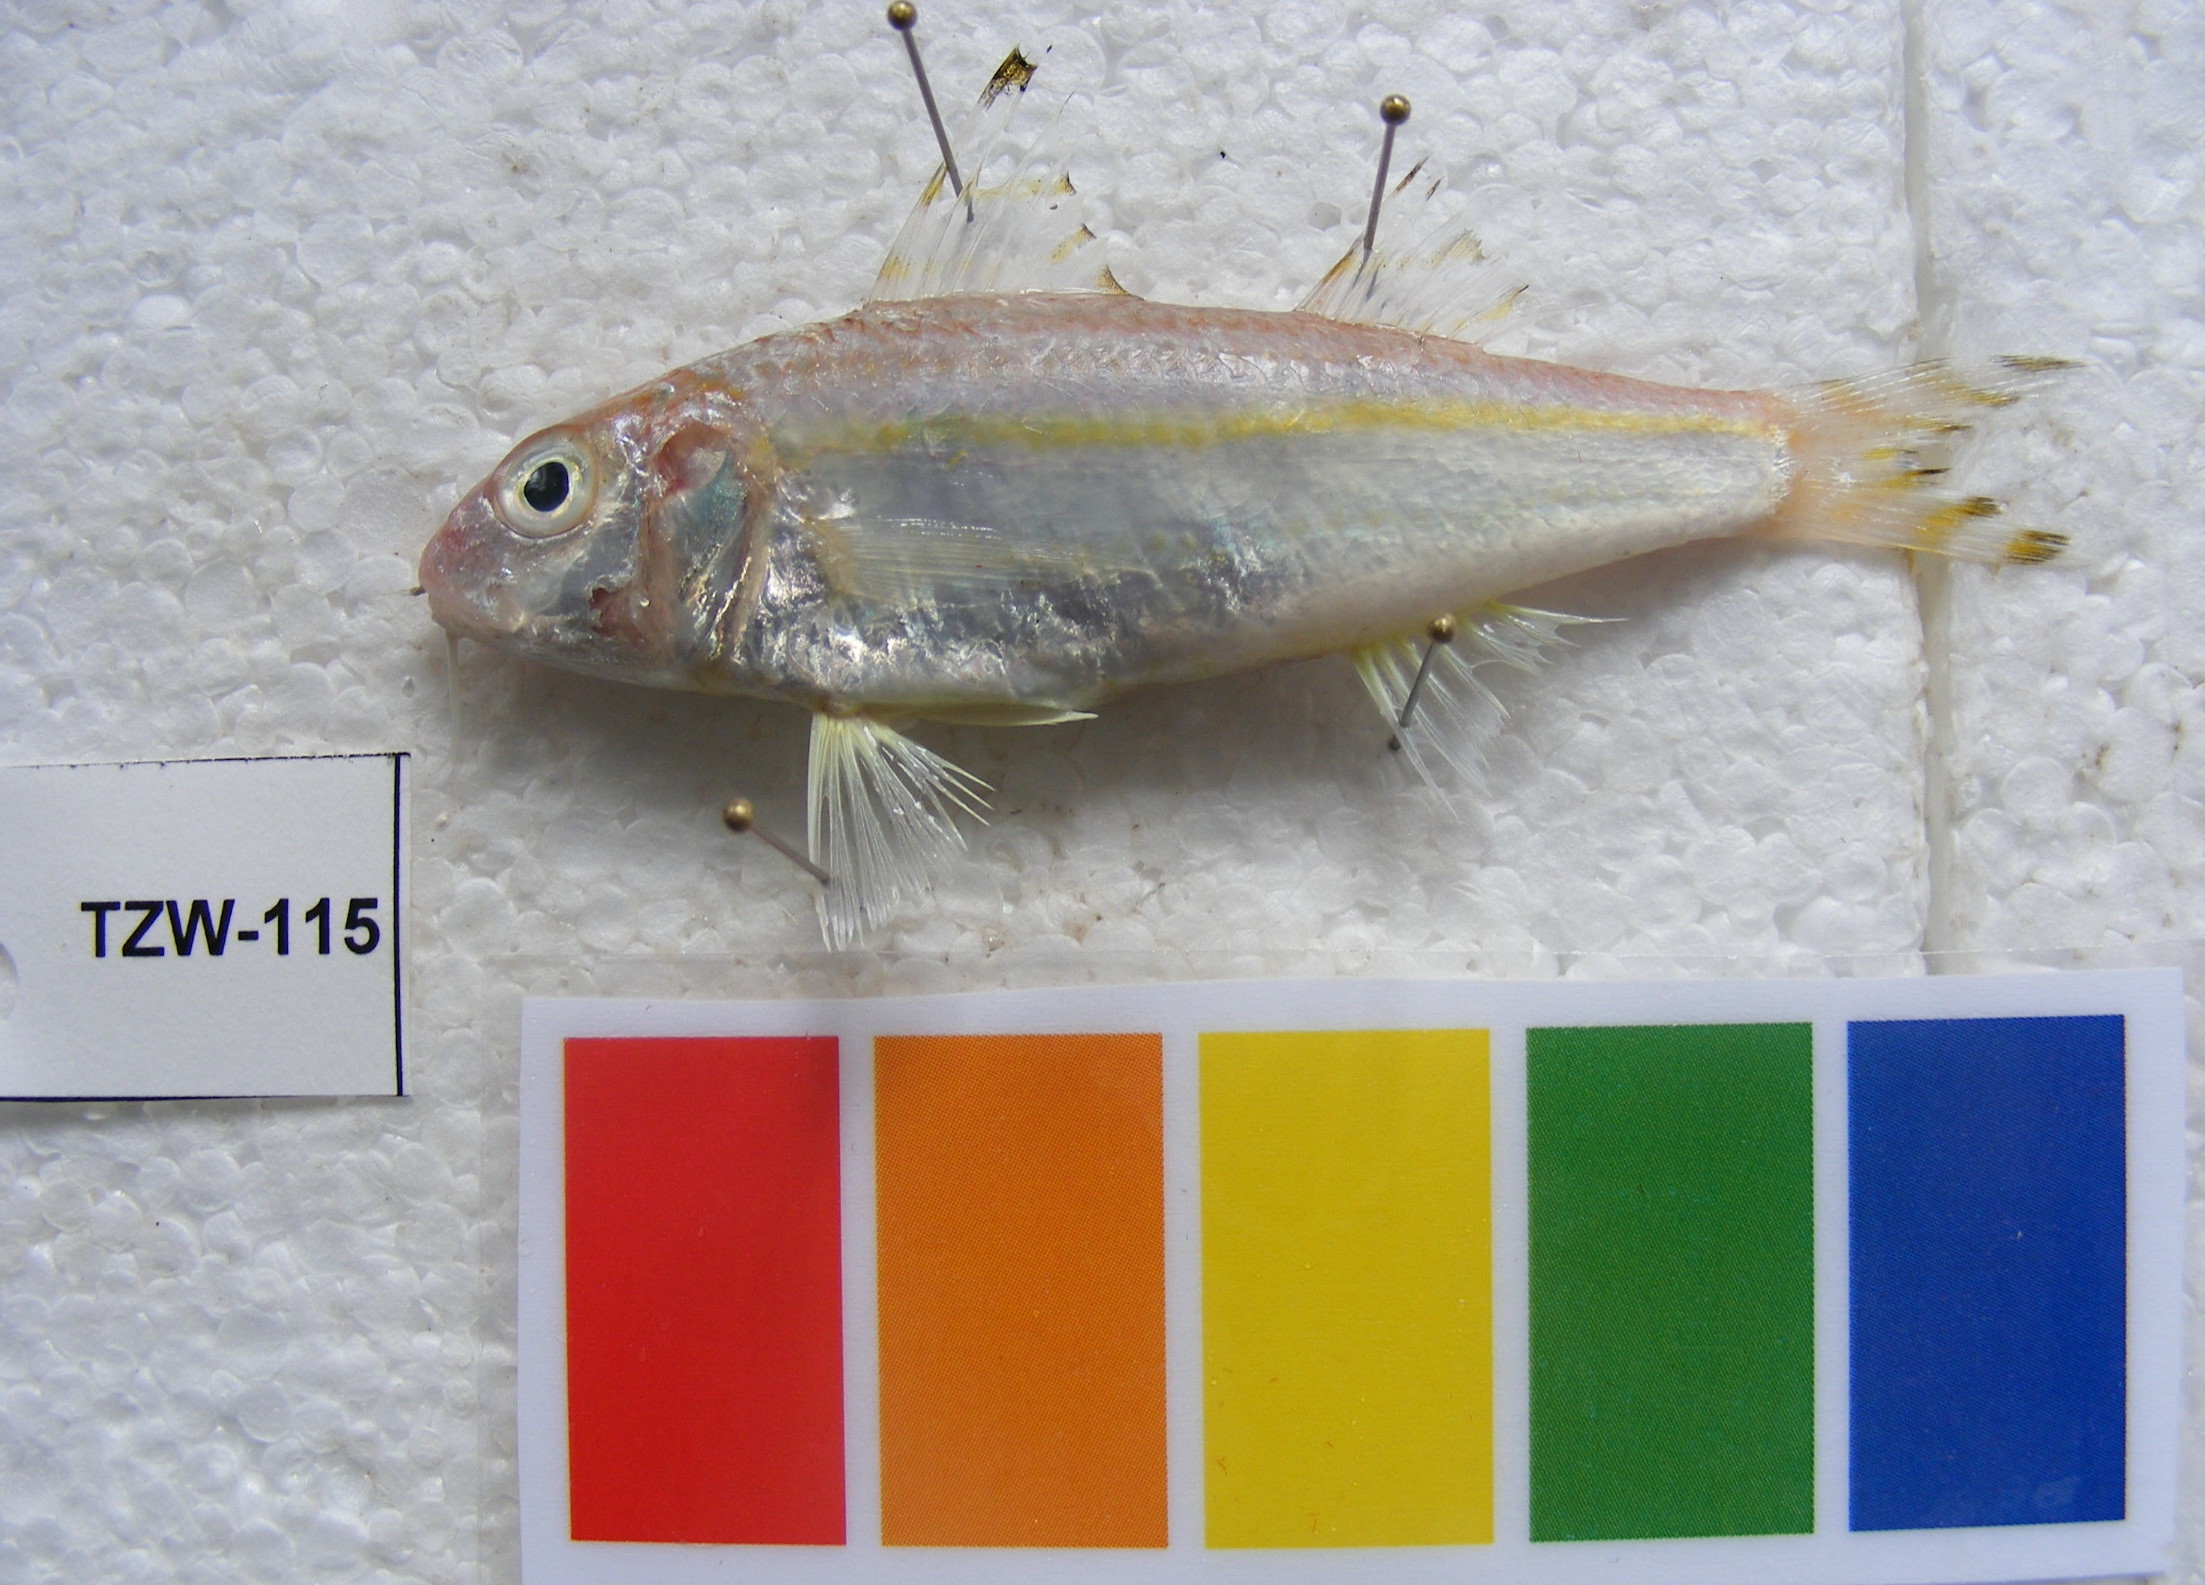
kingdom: Animalia
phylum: Chordata
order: Perciformes
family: Mullidae
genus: Upeneus
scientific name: Upeneus vittatus
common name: Striped goatfish
